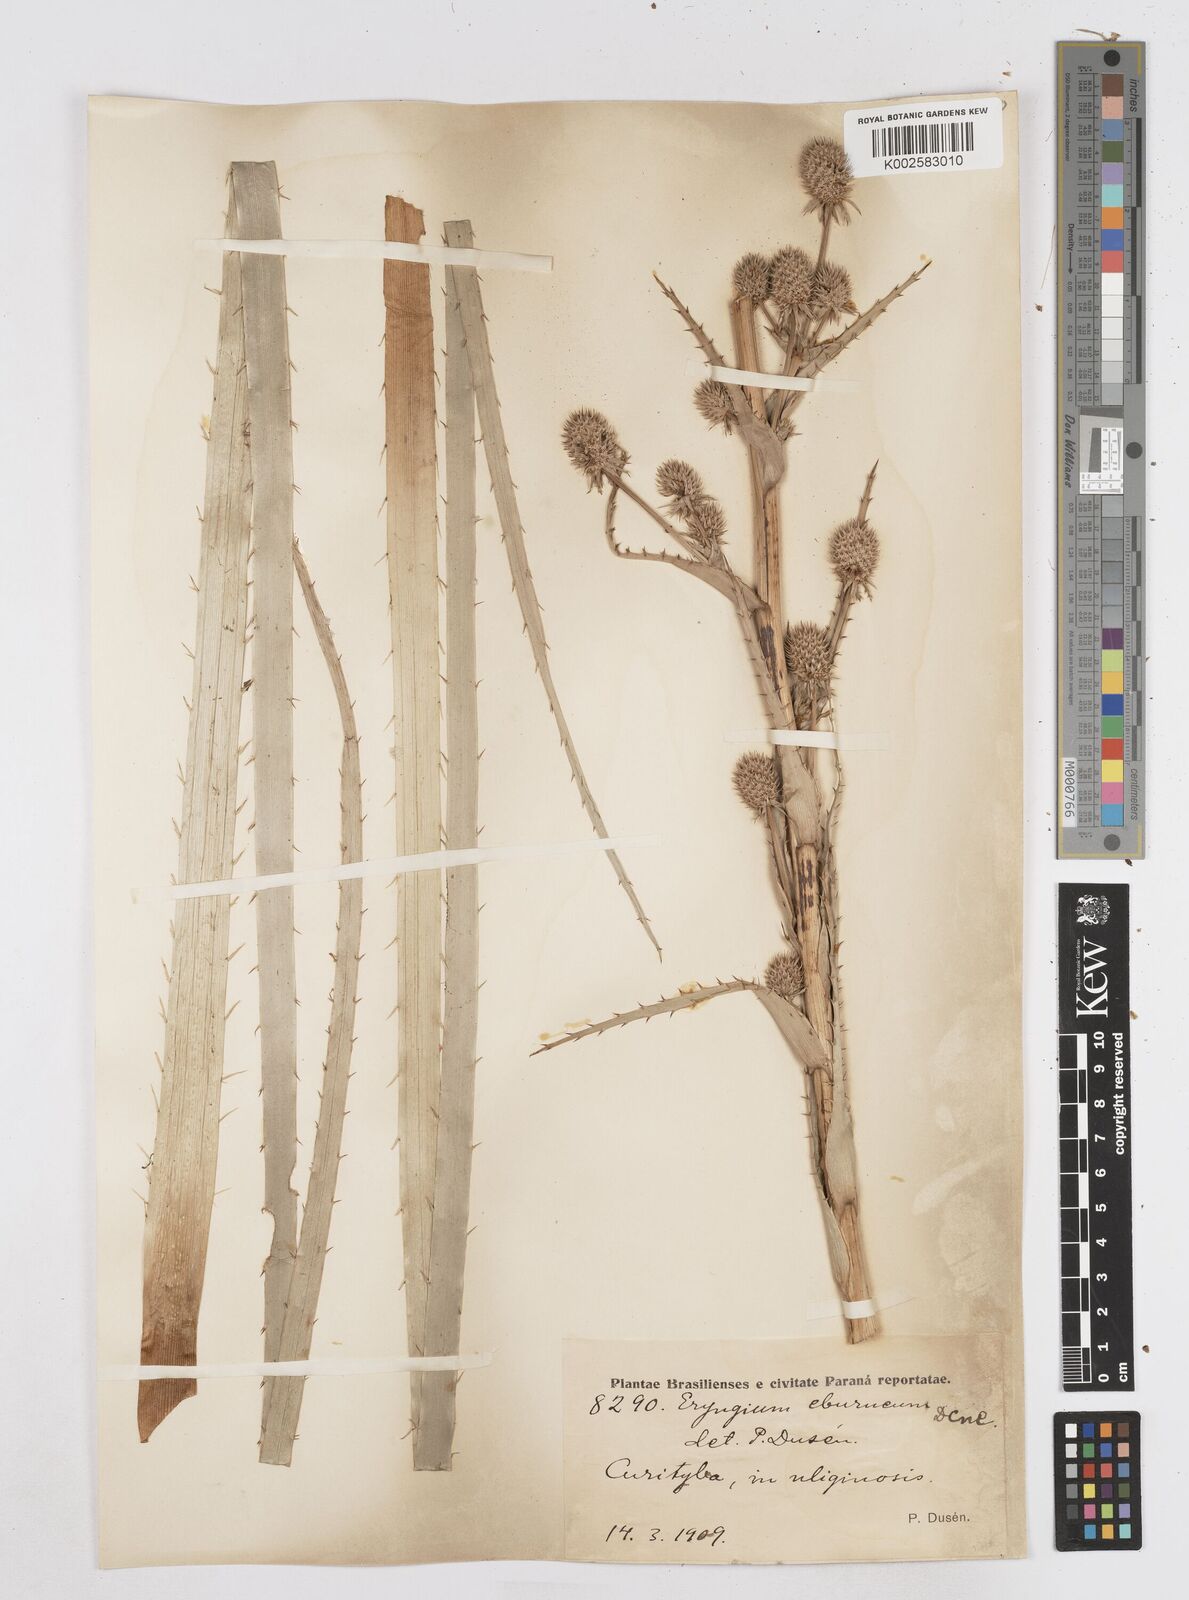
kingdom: Plantae
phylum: Tracheophyta
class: Magnoliopsida
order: Apiales
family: Apiaceae
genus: Eryngium
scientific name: Eryngium eburneum
